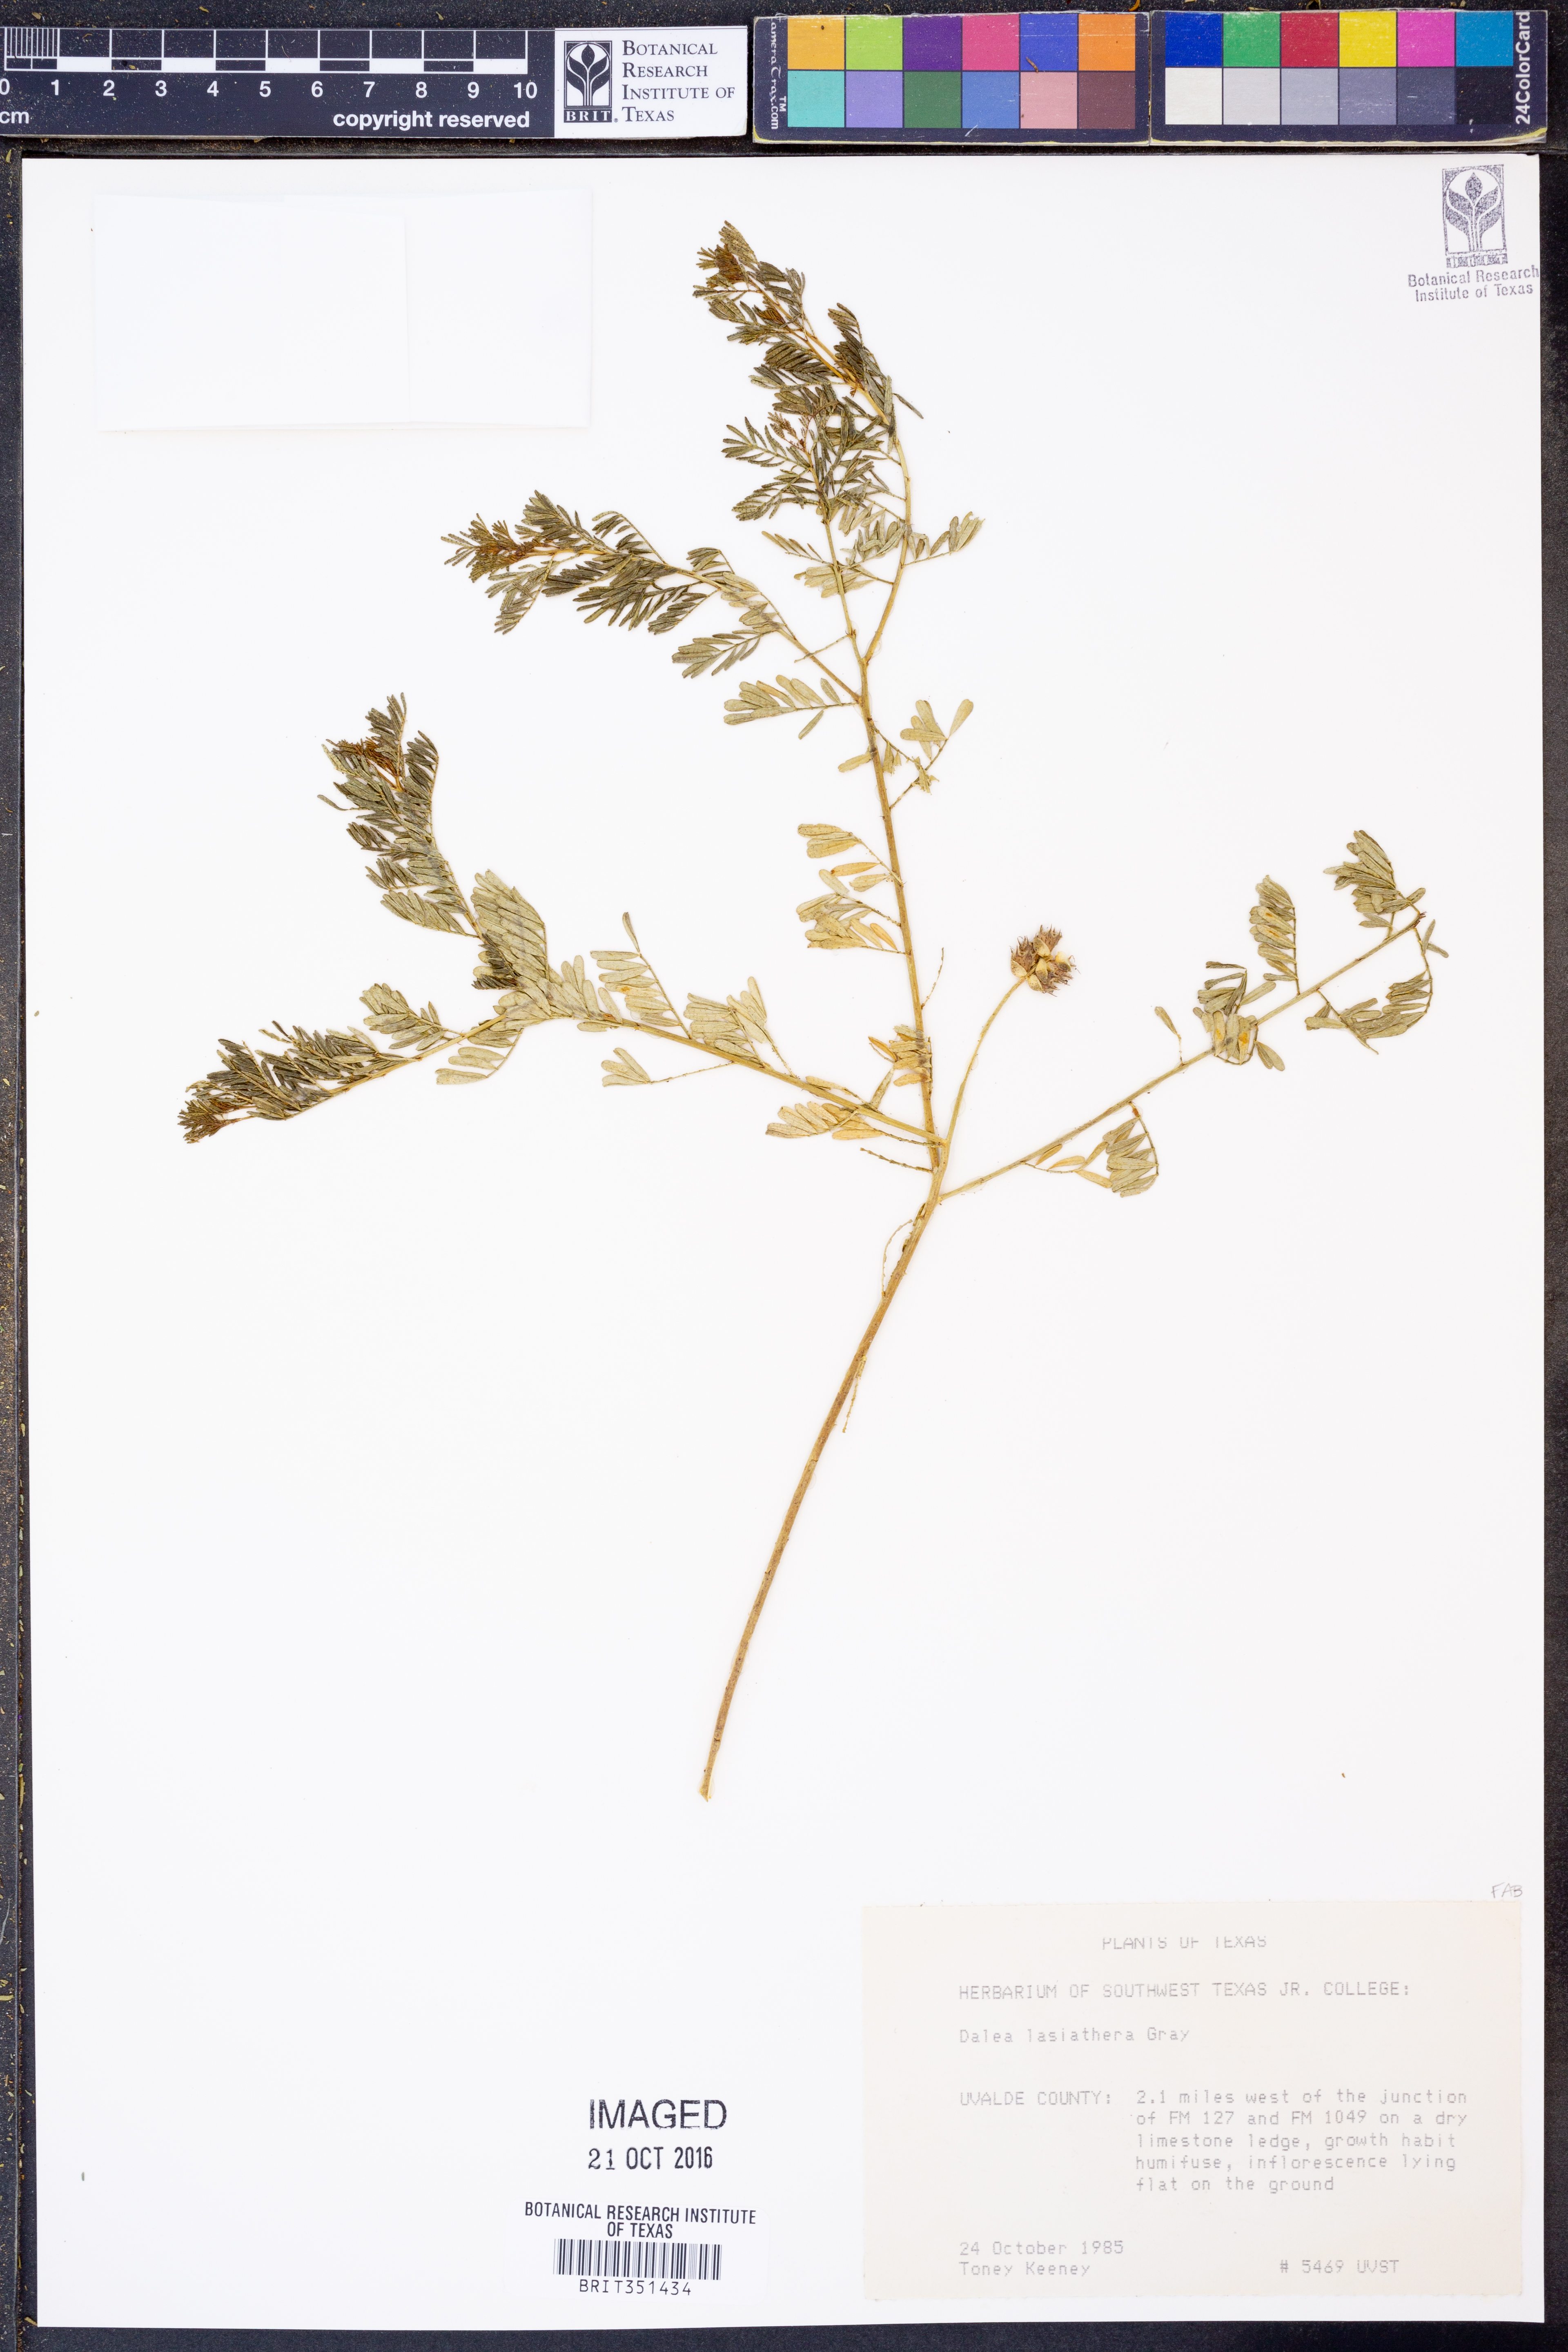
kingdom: Plantae
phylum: Tracheophyta
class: Magnoliopsida
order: Fabales
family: Fabaceae
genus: Dalea
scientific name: Dalea lasiathera
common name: Purple prairie-clover
